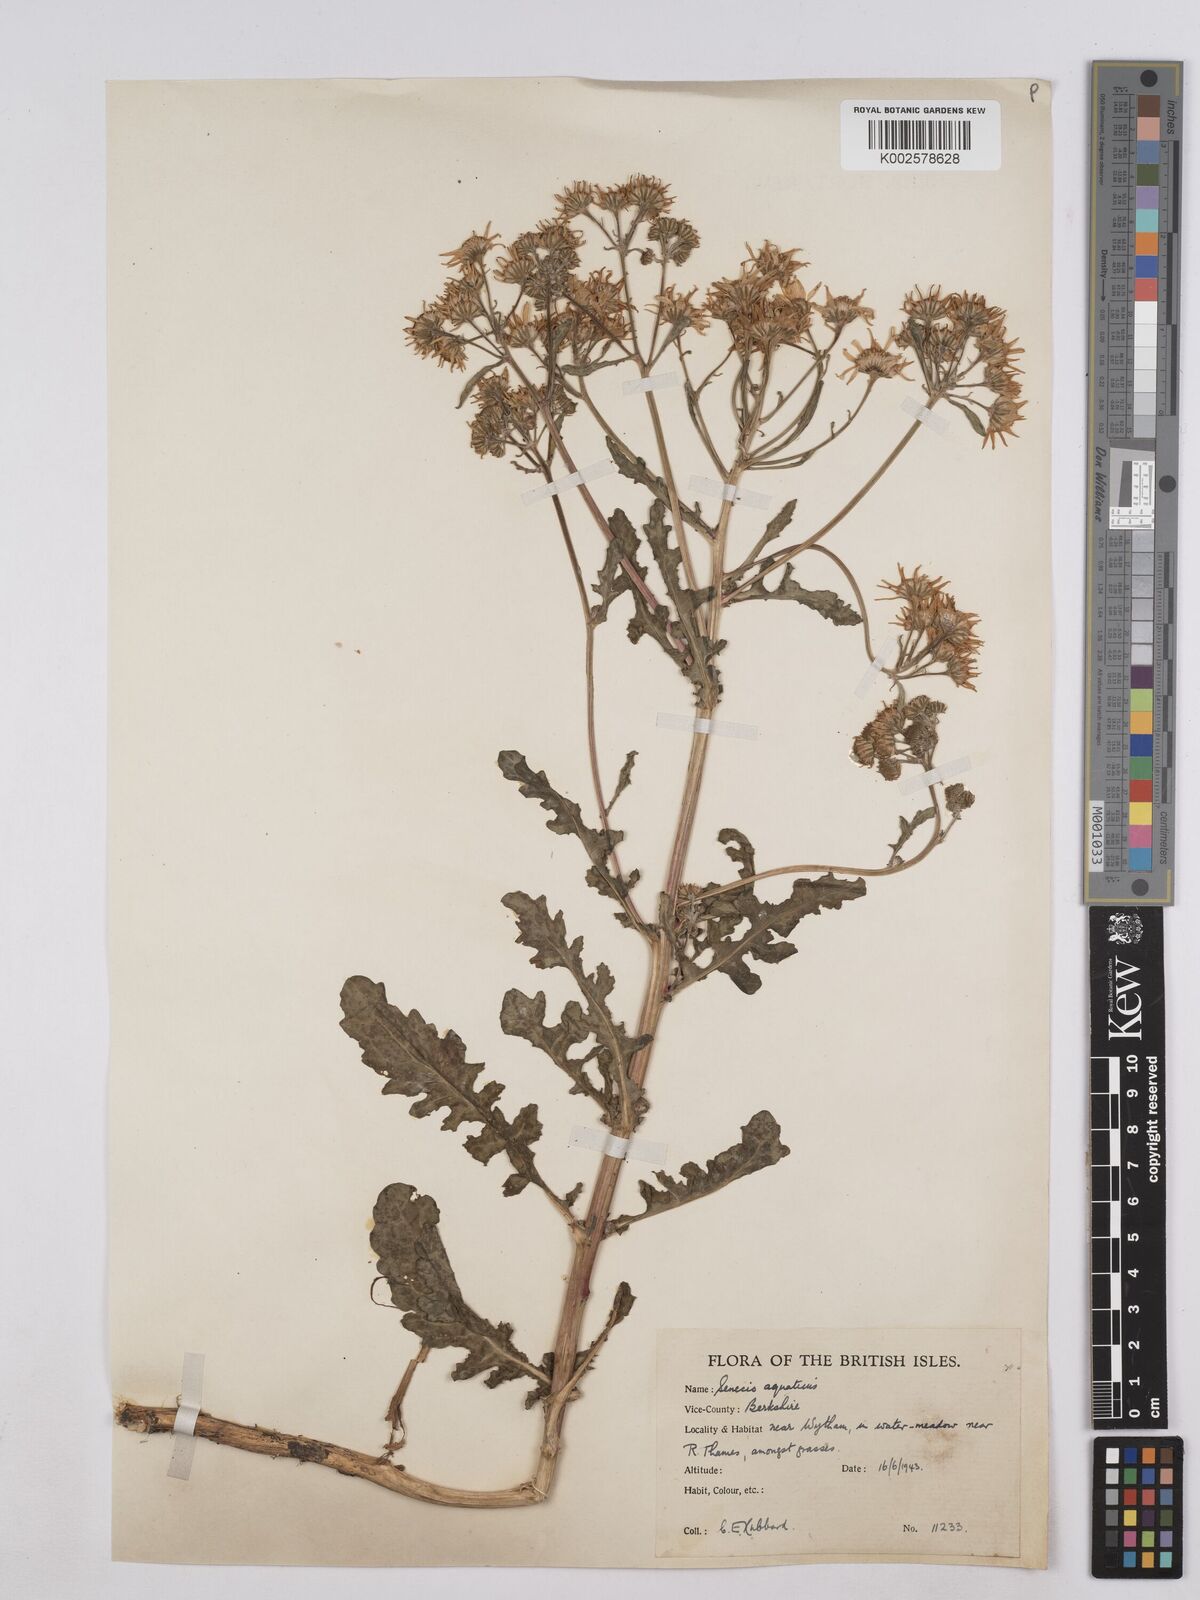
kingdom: Plantae
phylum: Tracheophyta
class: Magnoliopsida
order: Asterales
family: Asteraceae
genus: Jacobaea
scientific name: Jacobaea aquatica
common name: Water ragwort
